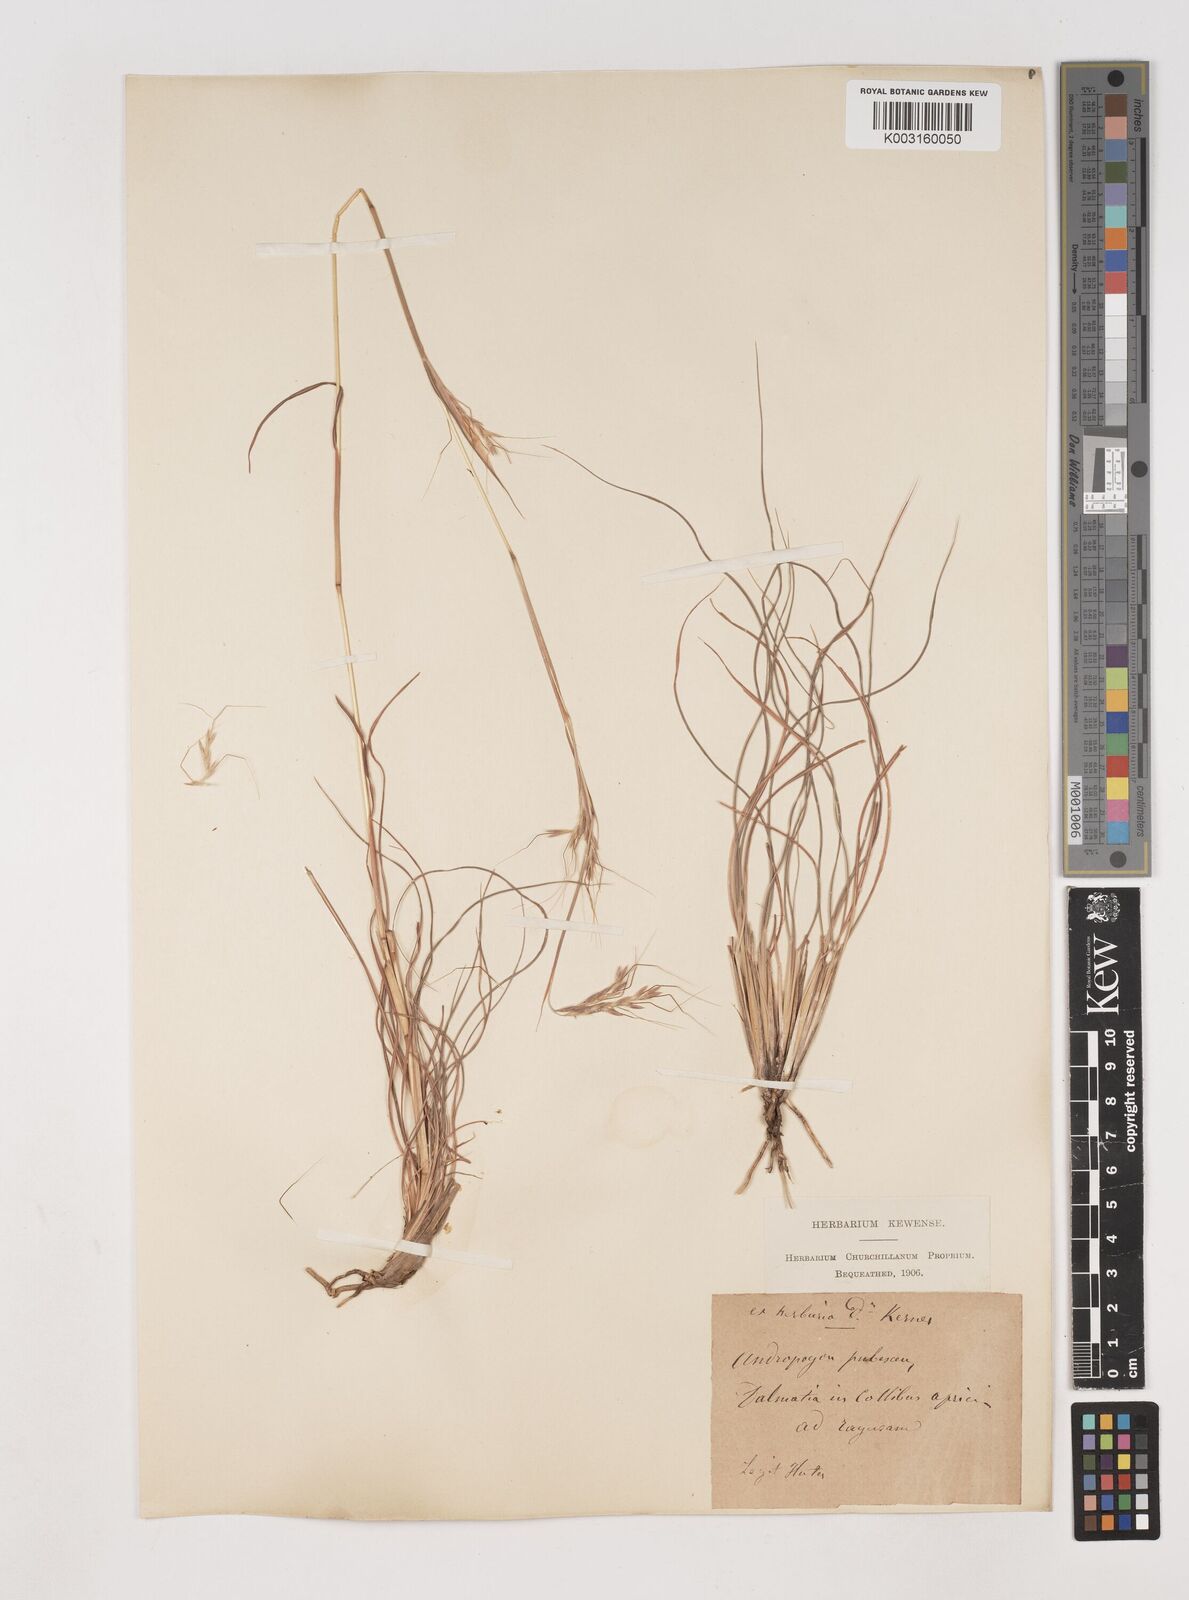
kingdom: Plantae
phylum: Tracheophyta
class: Liliopsida
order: Poales
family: Poaceae
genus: Hyparrhenia
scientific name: Hyparrhenia hirta
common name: Thatching grass
